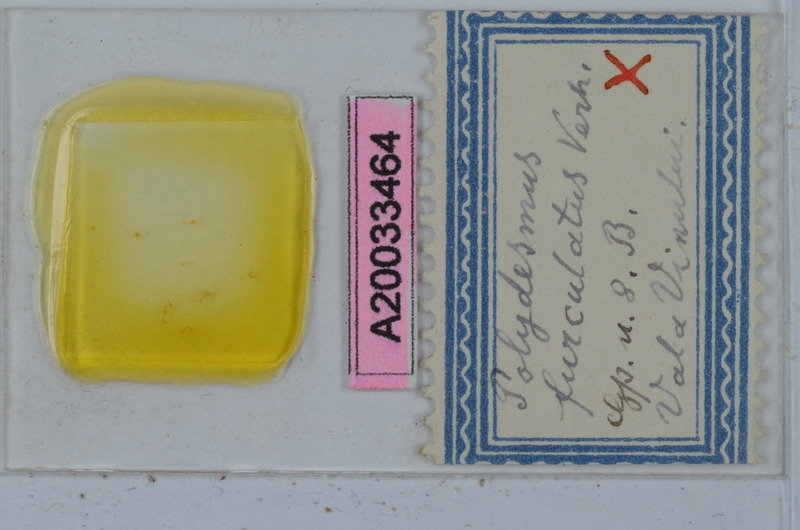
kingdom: Animalia
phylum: Arthropoda
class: Diplopoda
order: Polydesmida
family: Polydesmidae
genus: Polydesmus
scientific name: Polydesmus burzenlandicus
